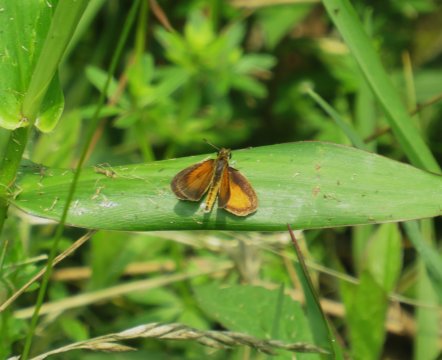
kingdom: Animalia
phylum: Arthropoda
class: Insecta
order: Lepidoptera
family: Hesperiidae
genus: Ancyloxypha
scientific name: Ancyloxypha numitor
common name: Least Skipper
